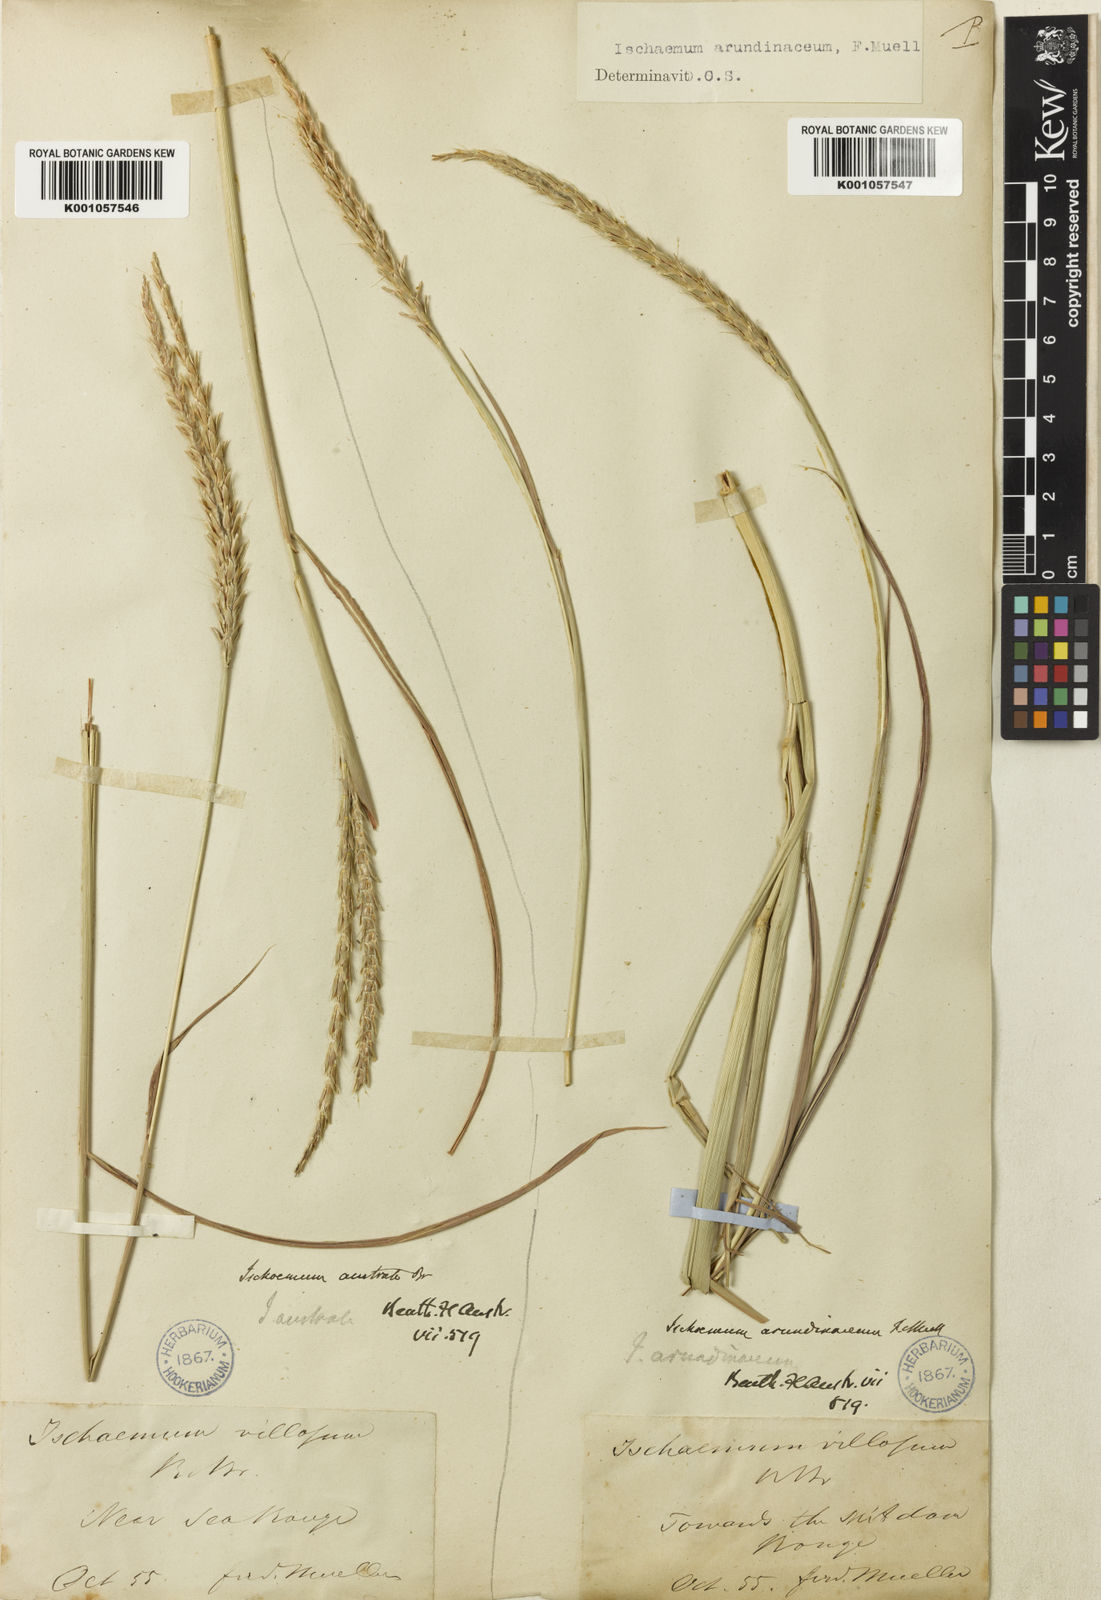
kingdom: Plantae
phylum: Tracheophyta
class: Liliopsida
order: Poales
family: Poaceae
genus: Ischaemum
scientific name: Ischaemum australe
